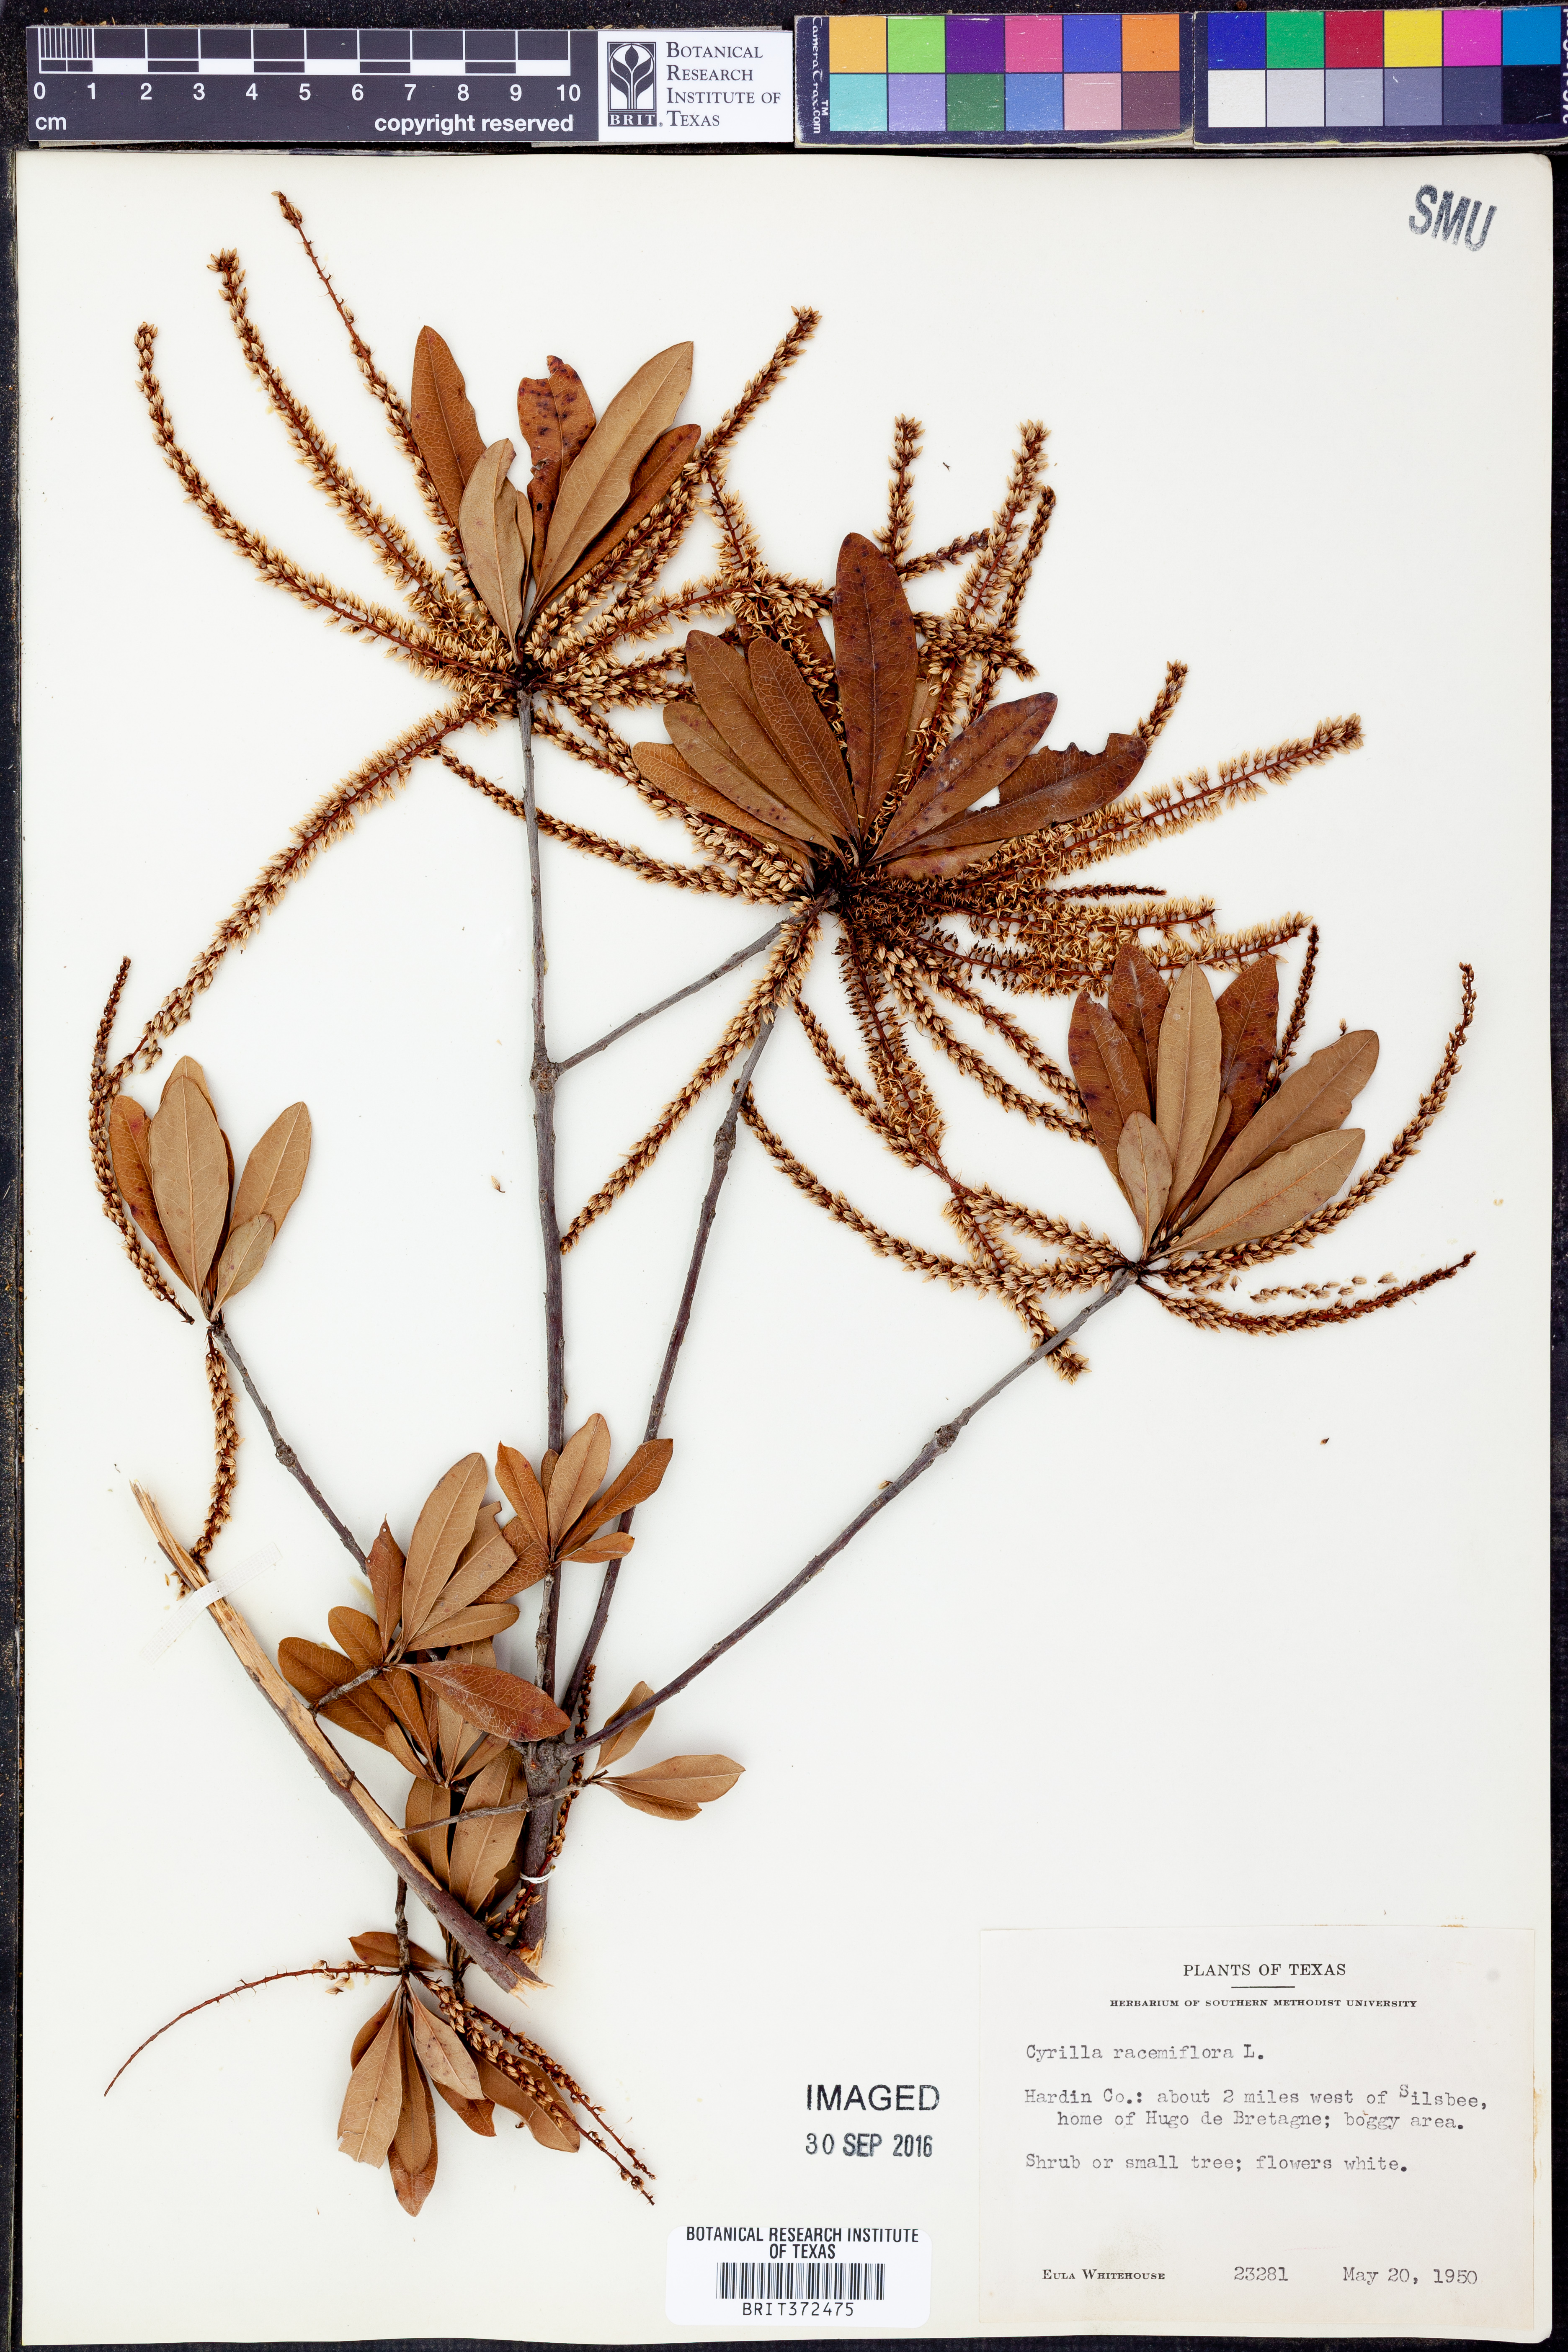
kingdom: Plantae
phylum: Tracheophyta
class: Magnoliopsida
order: Ericales
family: Cyrillaceae
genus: Cyrilla
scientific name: Cyrilla racemiflora
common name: Black titi
